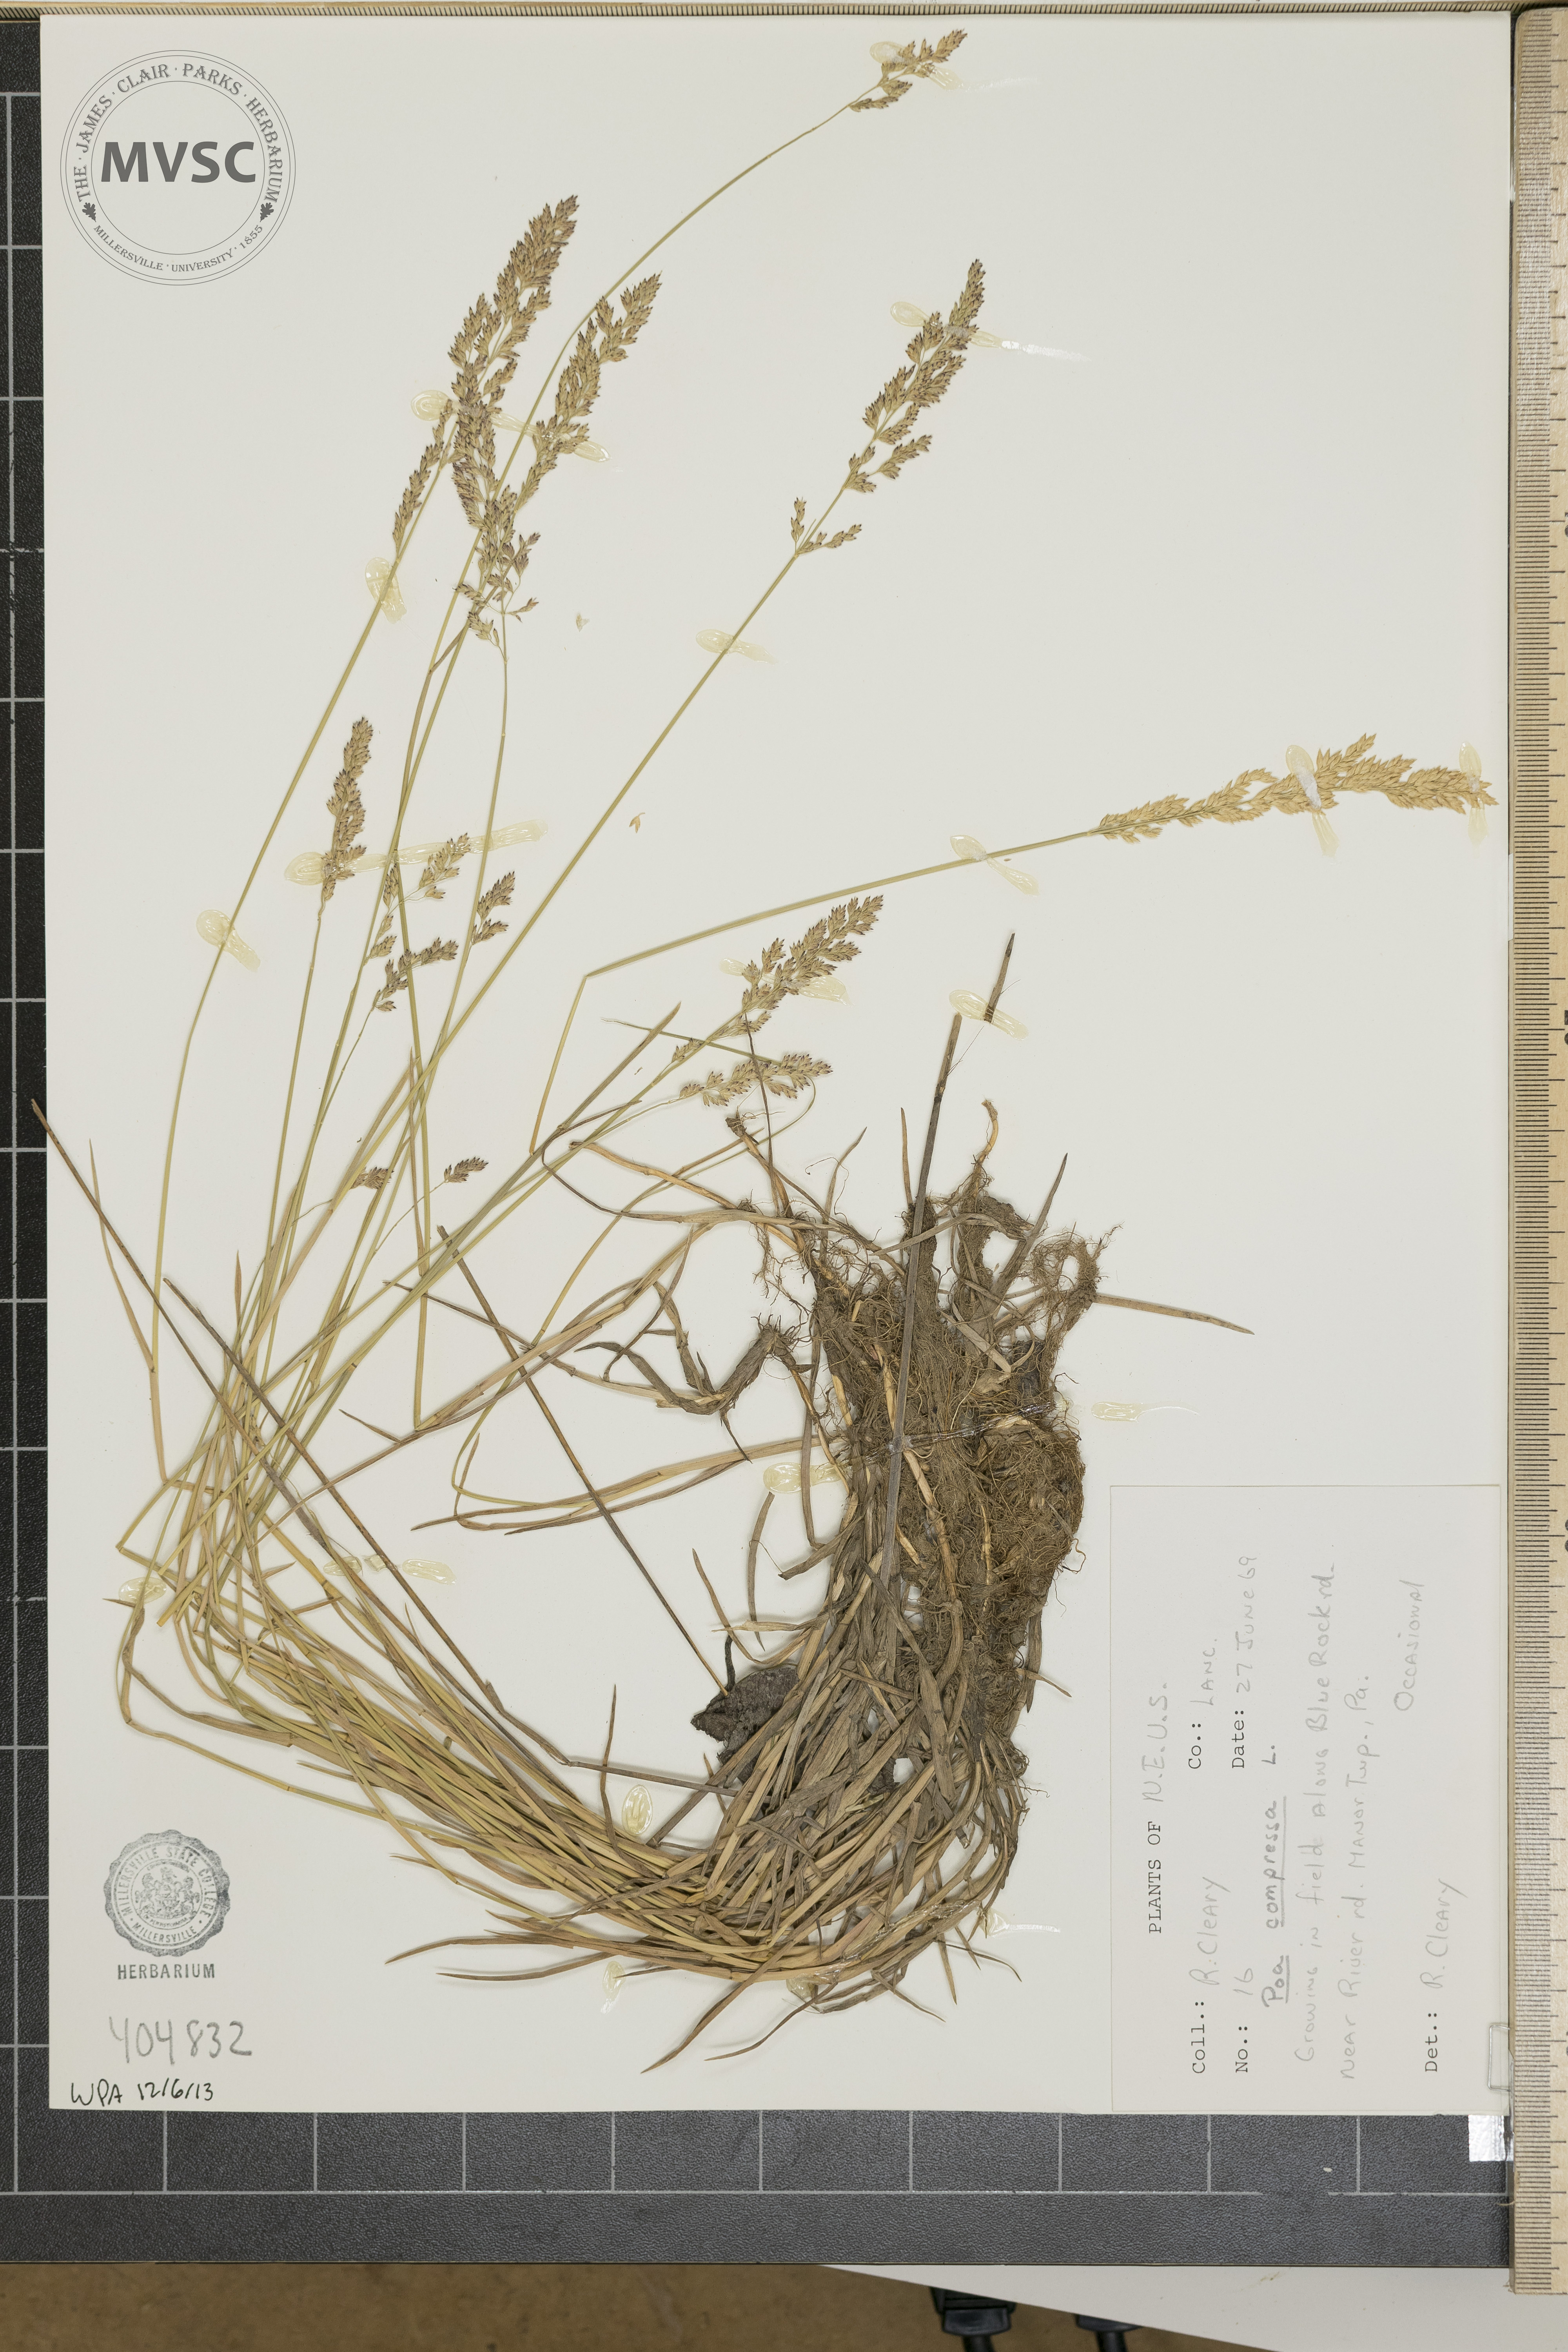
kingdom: Plantae
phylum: Tracheophyta
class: Liliopsida
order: Poales
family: Poaceae
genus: Poa
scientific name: Poa compressa
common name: Canada bluegrass
